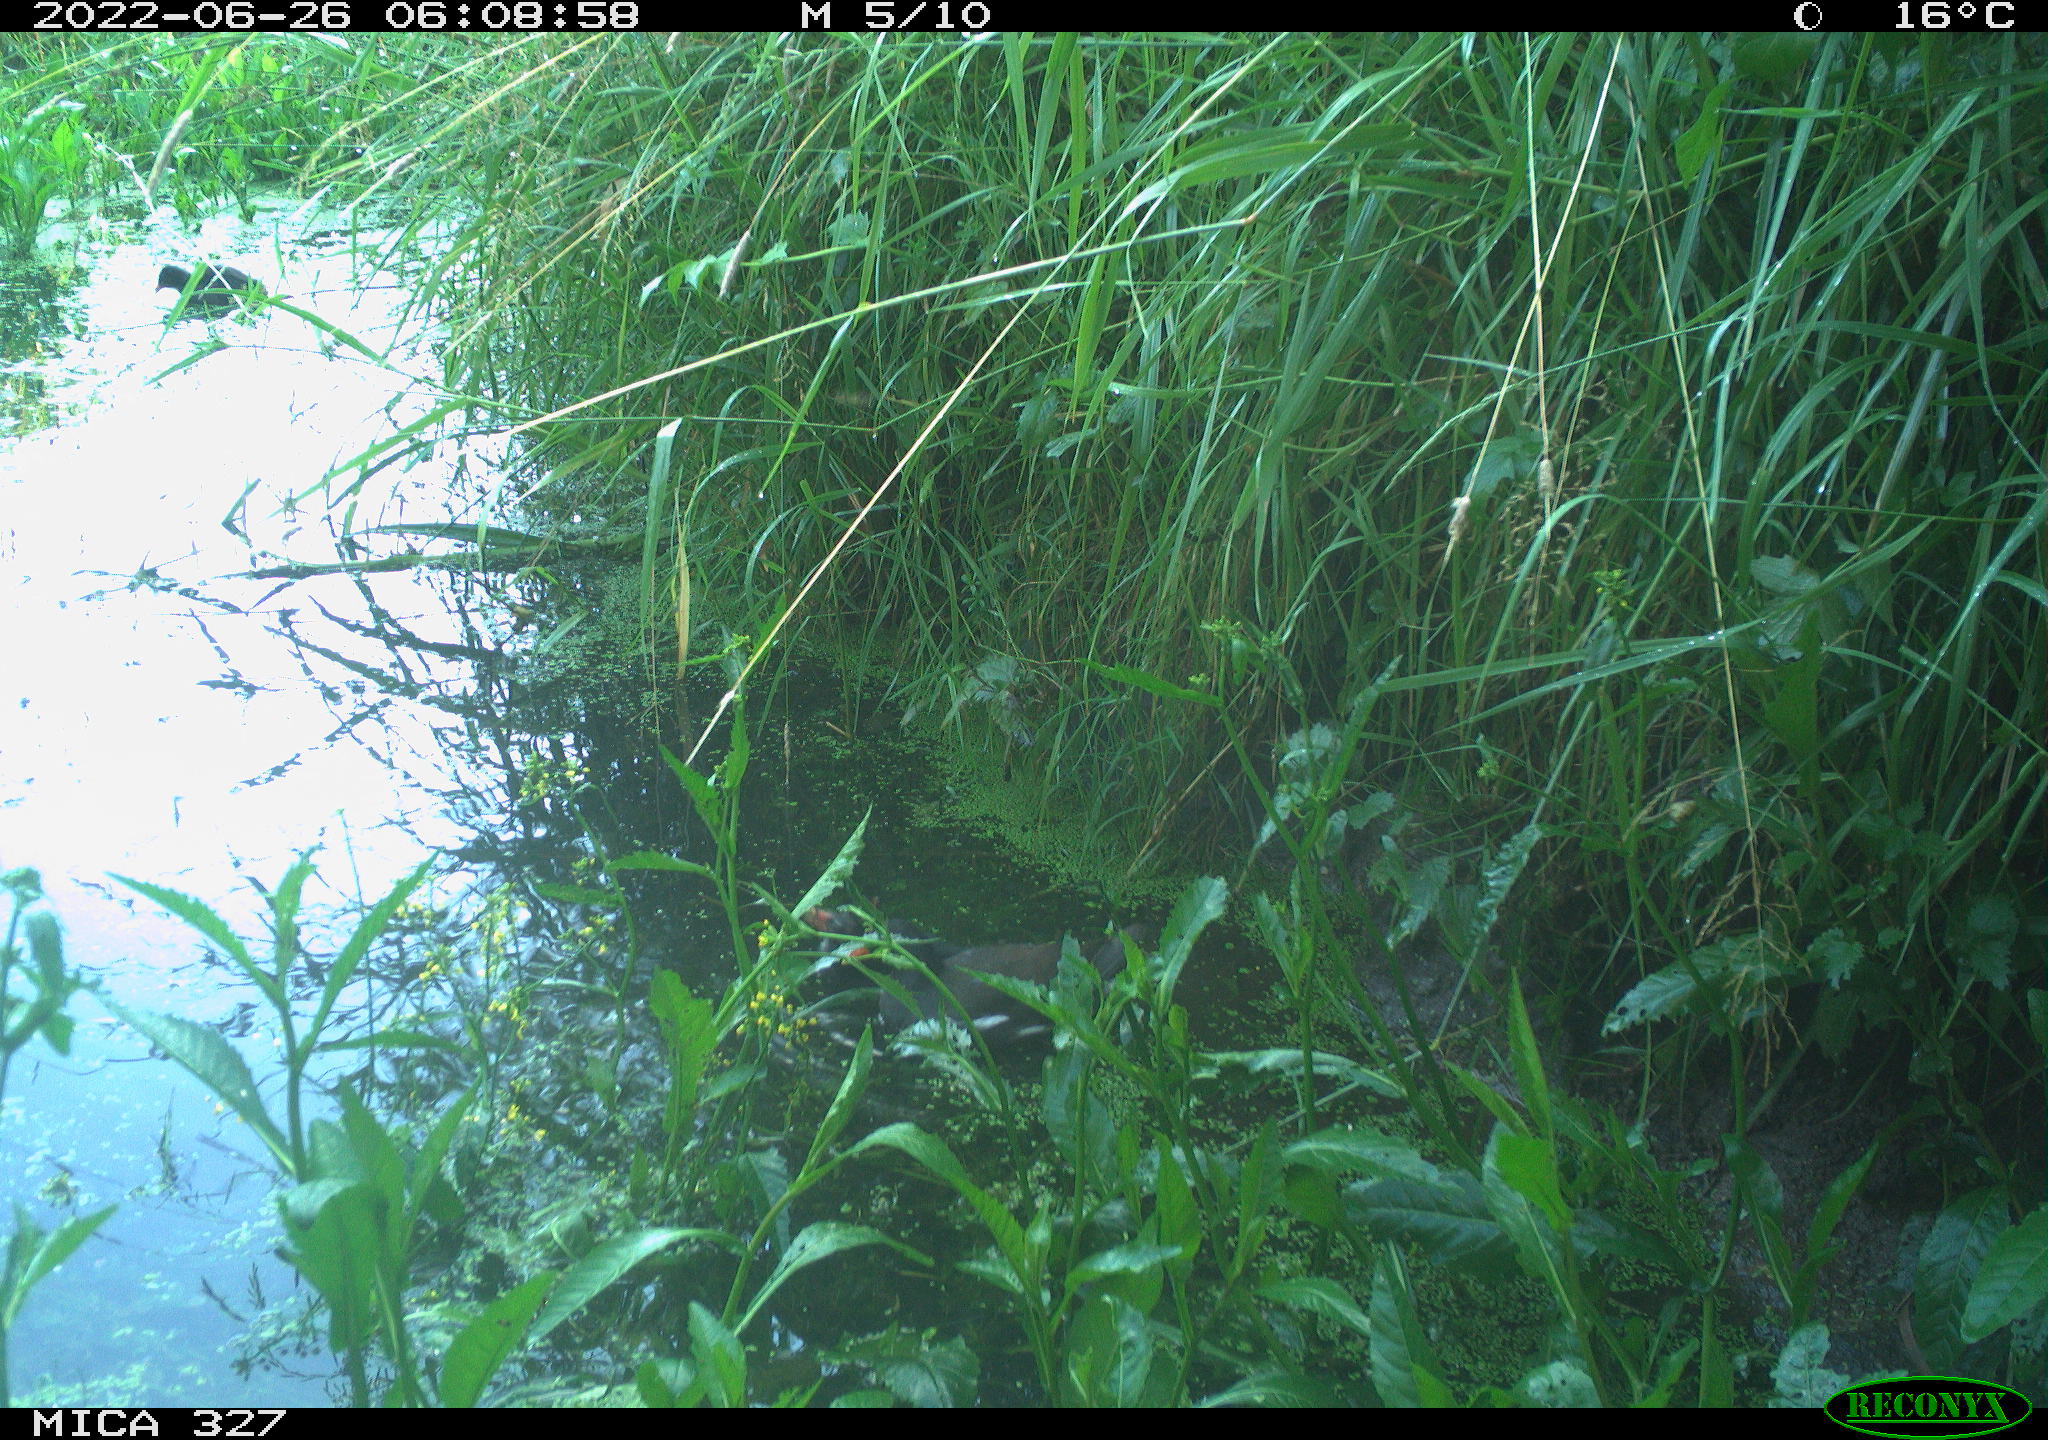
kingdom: Animalia
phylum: Chordata
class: Aves
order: Gruiformes
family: Rallidae
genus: Gallinula
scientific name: Gallinula chloropus
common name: Common moorhen
